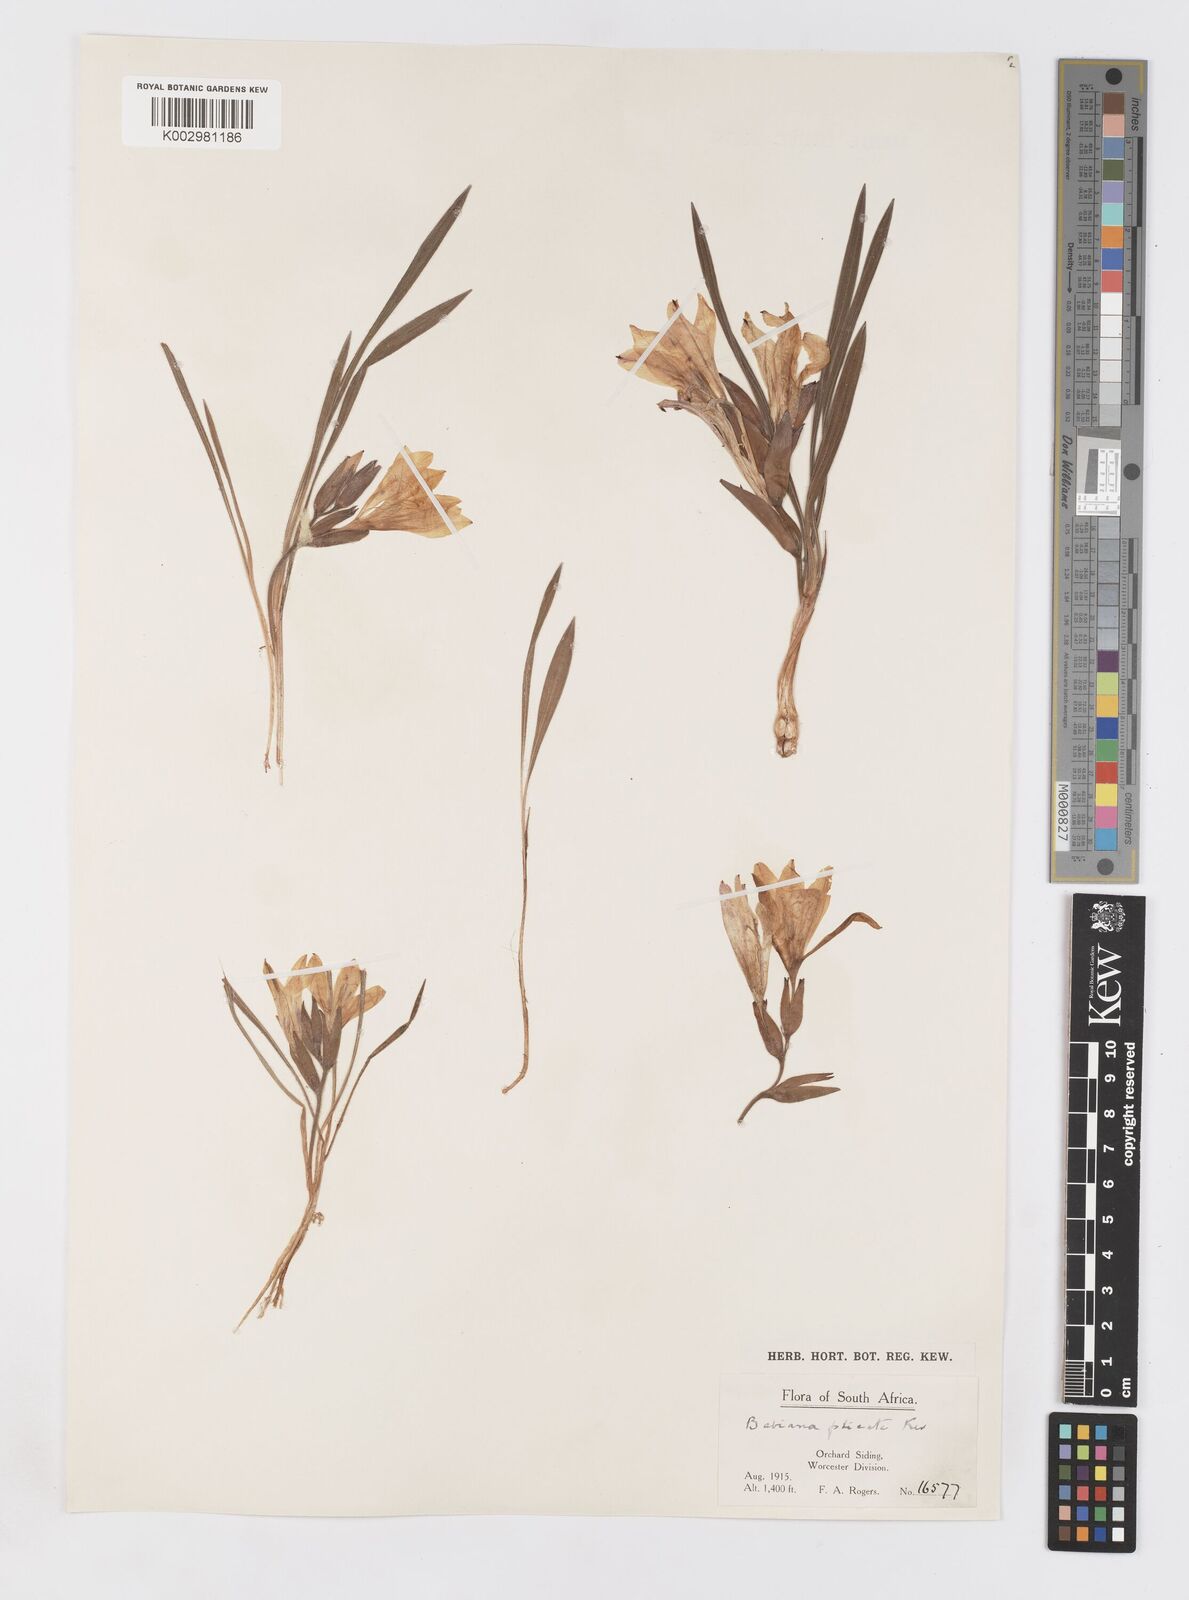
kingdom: Plantae
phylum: Tracheophyta
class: Liliopsida
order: Asparagales
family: Iridaceae
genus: Babiana
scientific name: Babiana fragrans
